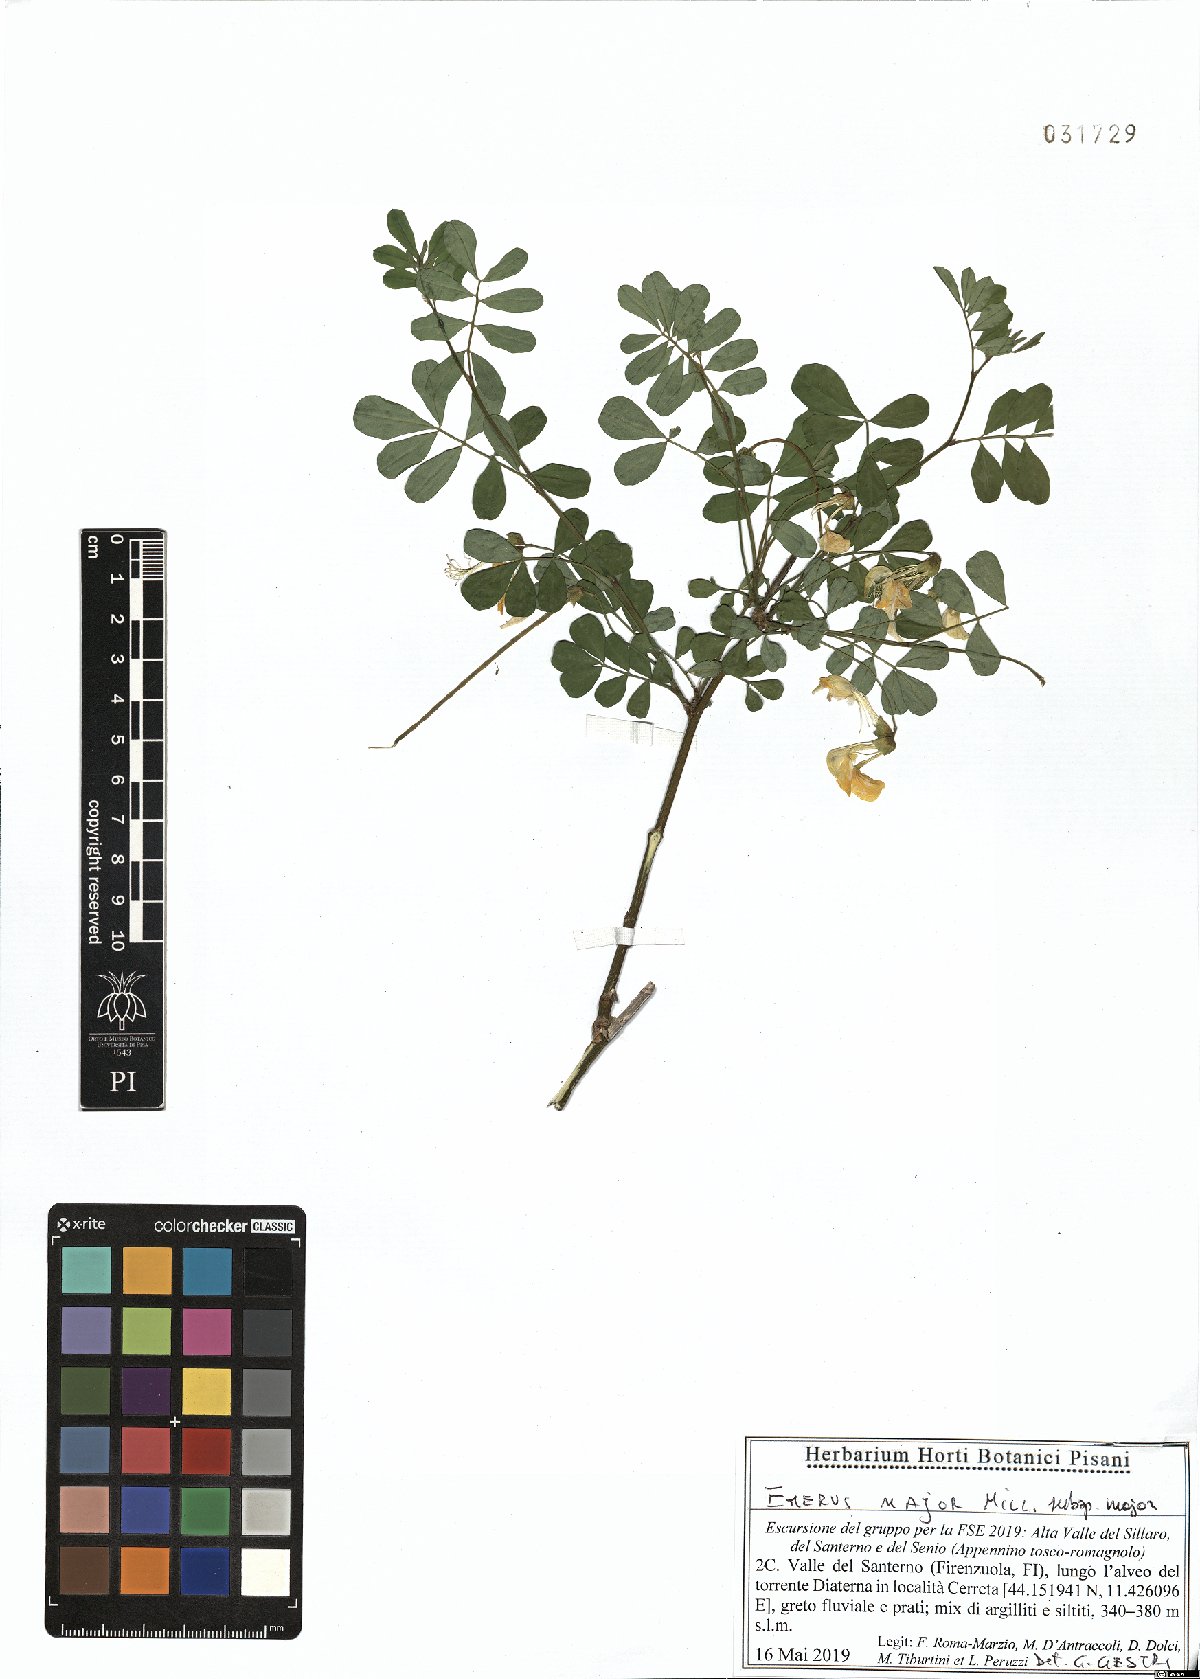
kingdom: Plantae
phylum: Tracheophyta
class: Magnoliopsida
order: Fabales
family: Fabaceae
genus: Hippocrepis
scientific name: Hippocrepis emerus
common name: Scorpion senna
